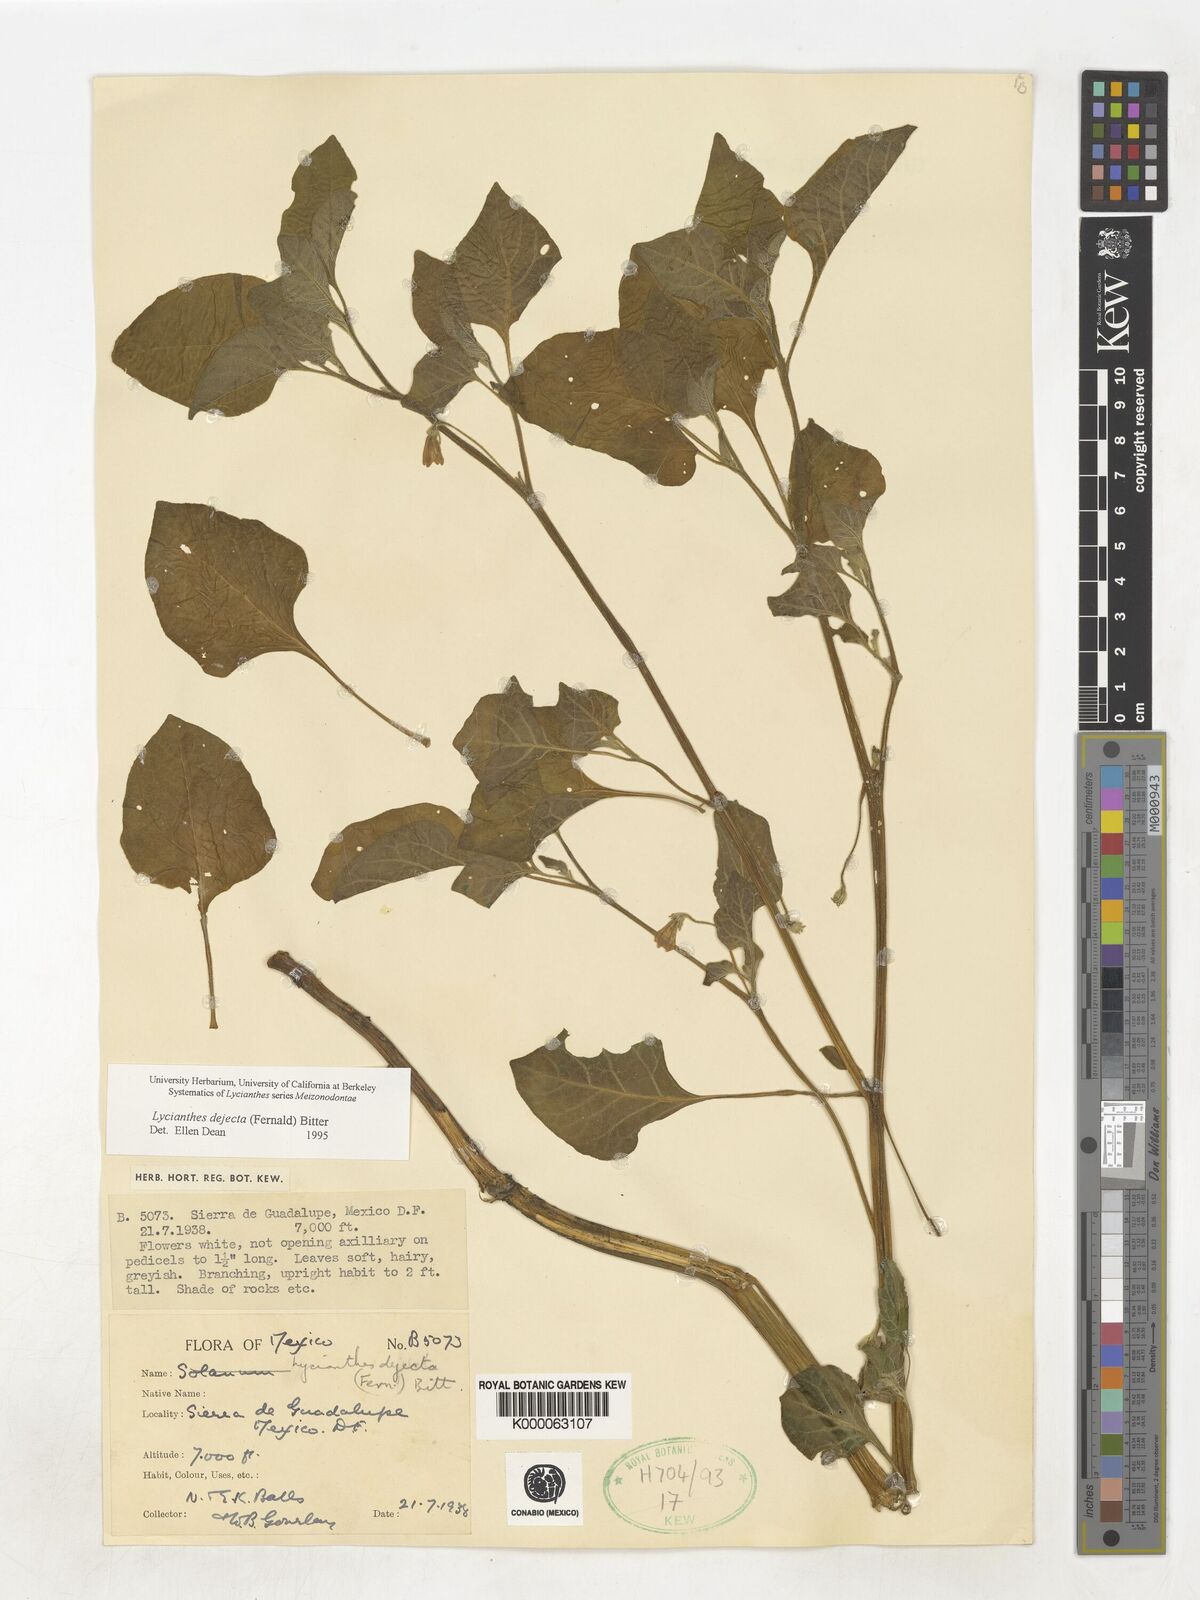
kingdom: Plantae
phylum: Tracheophyta
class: Magnoliopsida
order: Solanales
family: Solanaceae
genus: Lycianthes
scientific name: Lycianthes dejecta
